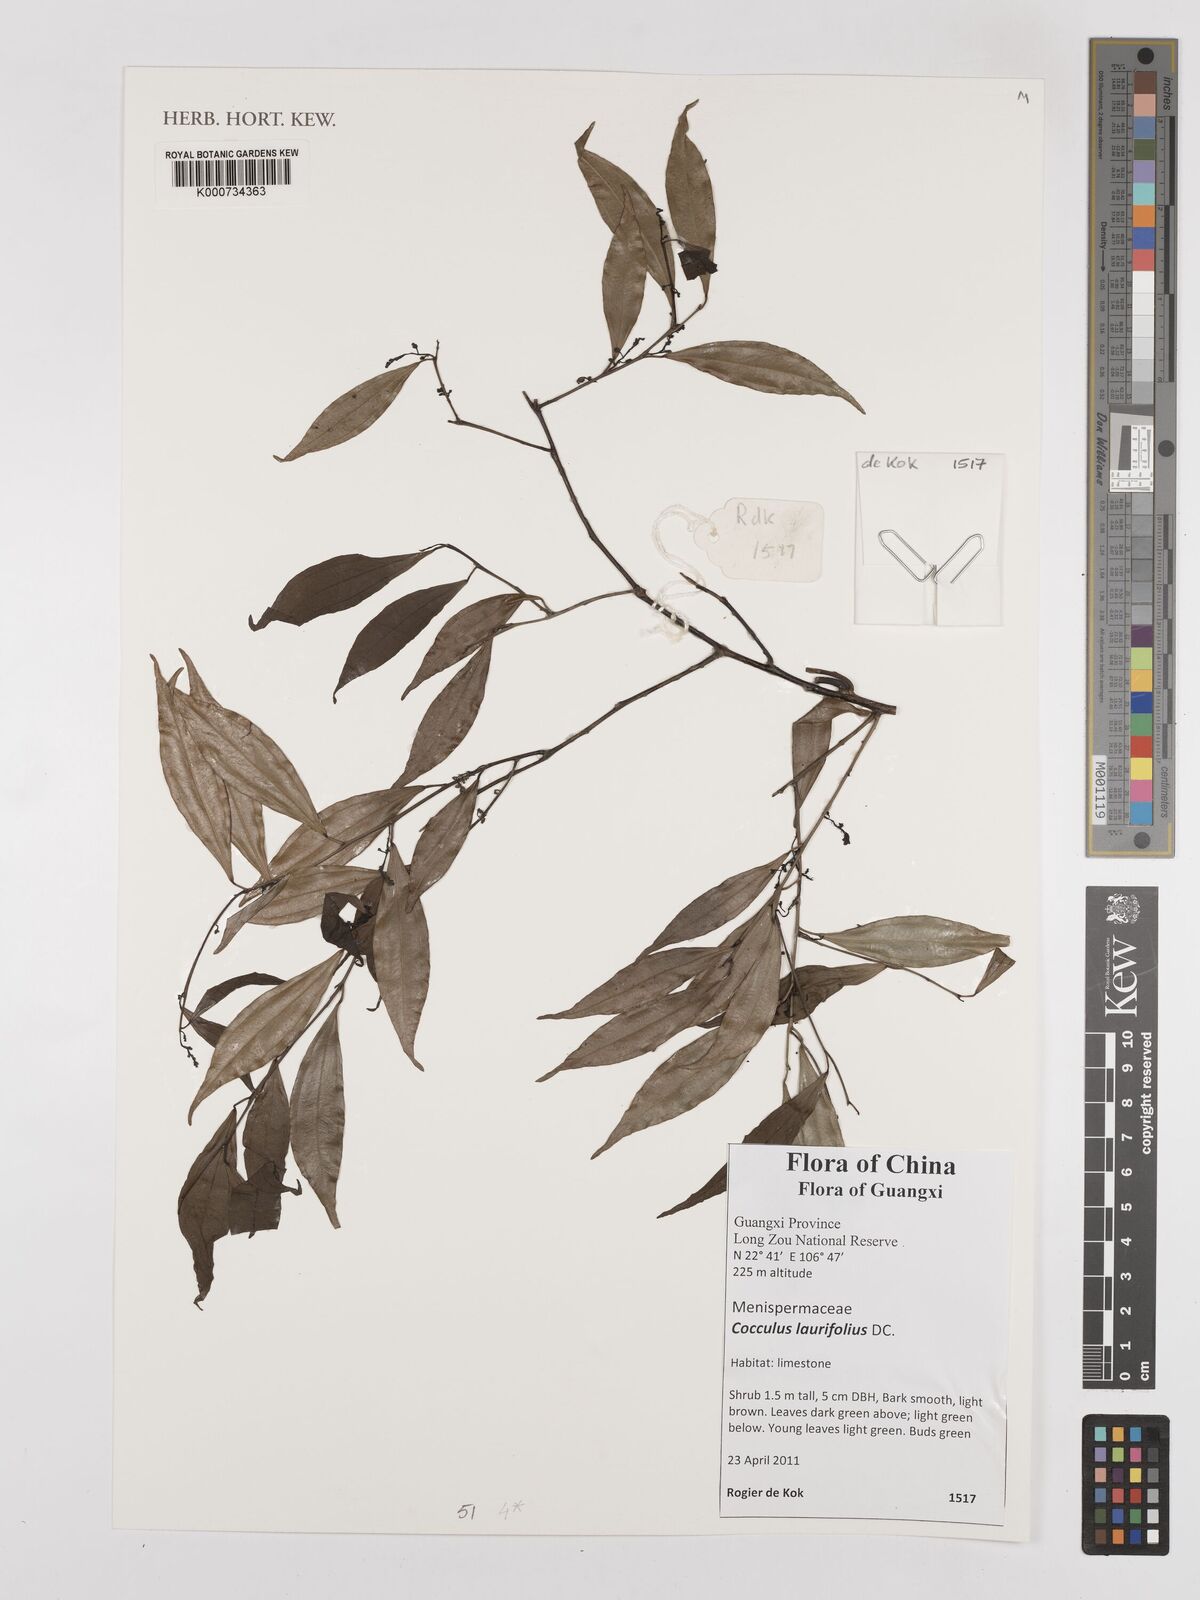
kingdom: Plantae
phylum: Tracheophyta
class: Magnoliopsida
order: Ranunculales
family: Menispermaceae
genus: Cocculus
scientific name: Cocculus laurifolius
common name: Laurel-leaf snailseed
